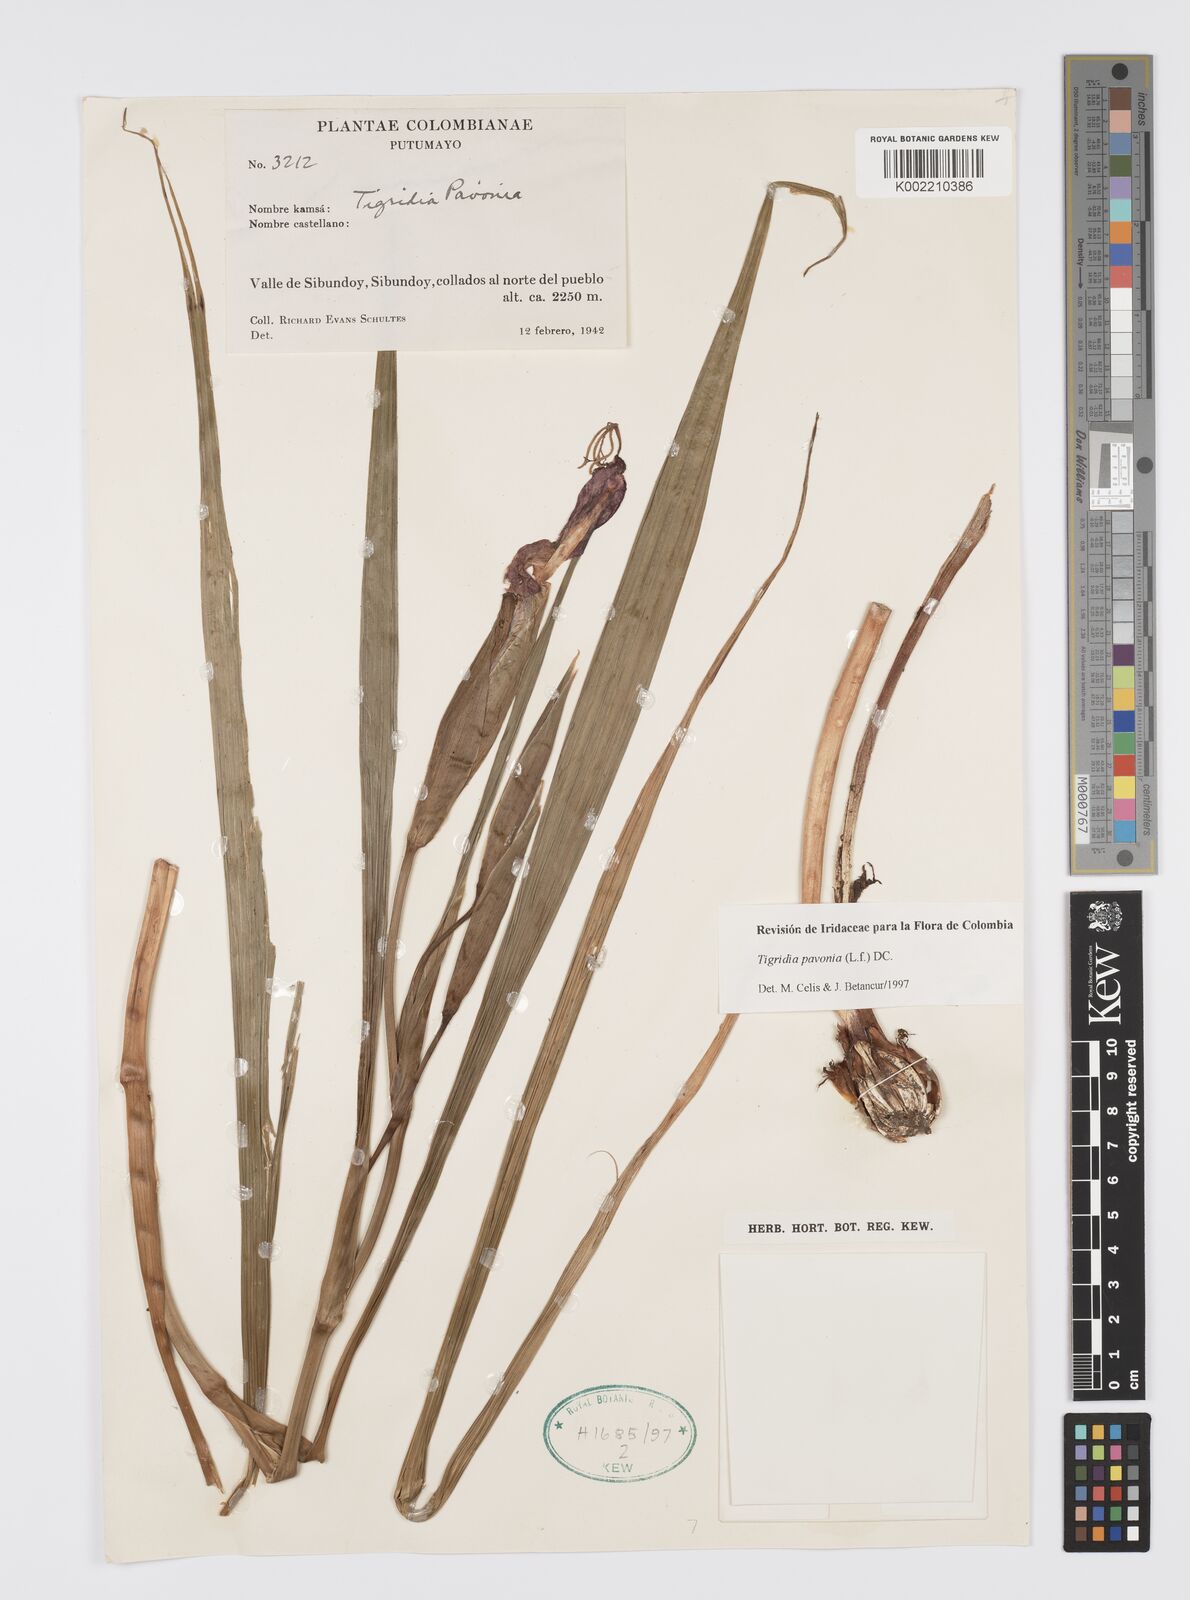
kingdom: Plantae
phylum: Tracheophyta
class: Liliopsida
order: Asparagales
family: Iridaceae
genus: Tigridia
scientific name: Tigridia pavonia
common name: Peacock-flower
